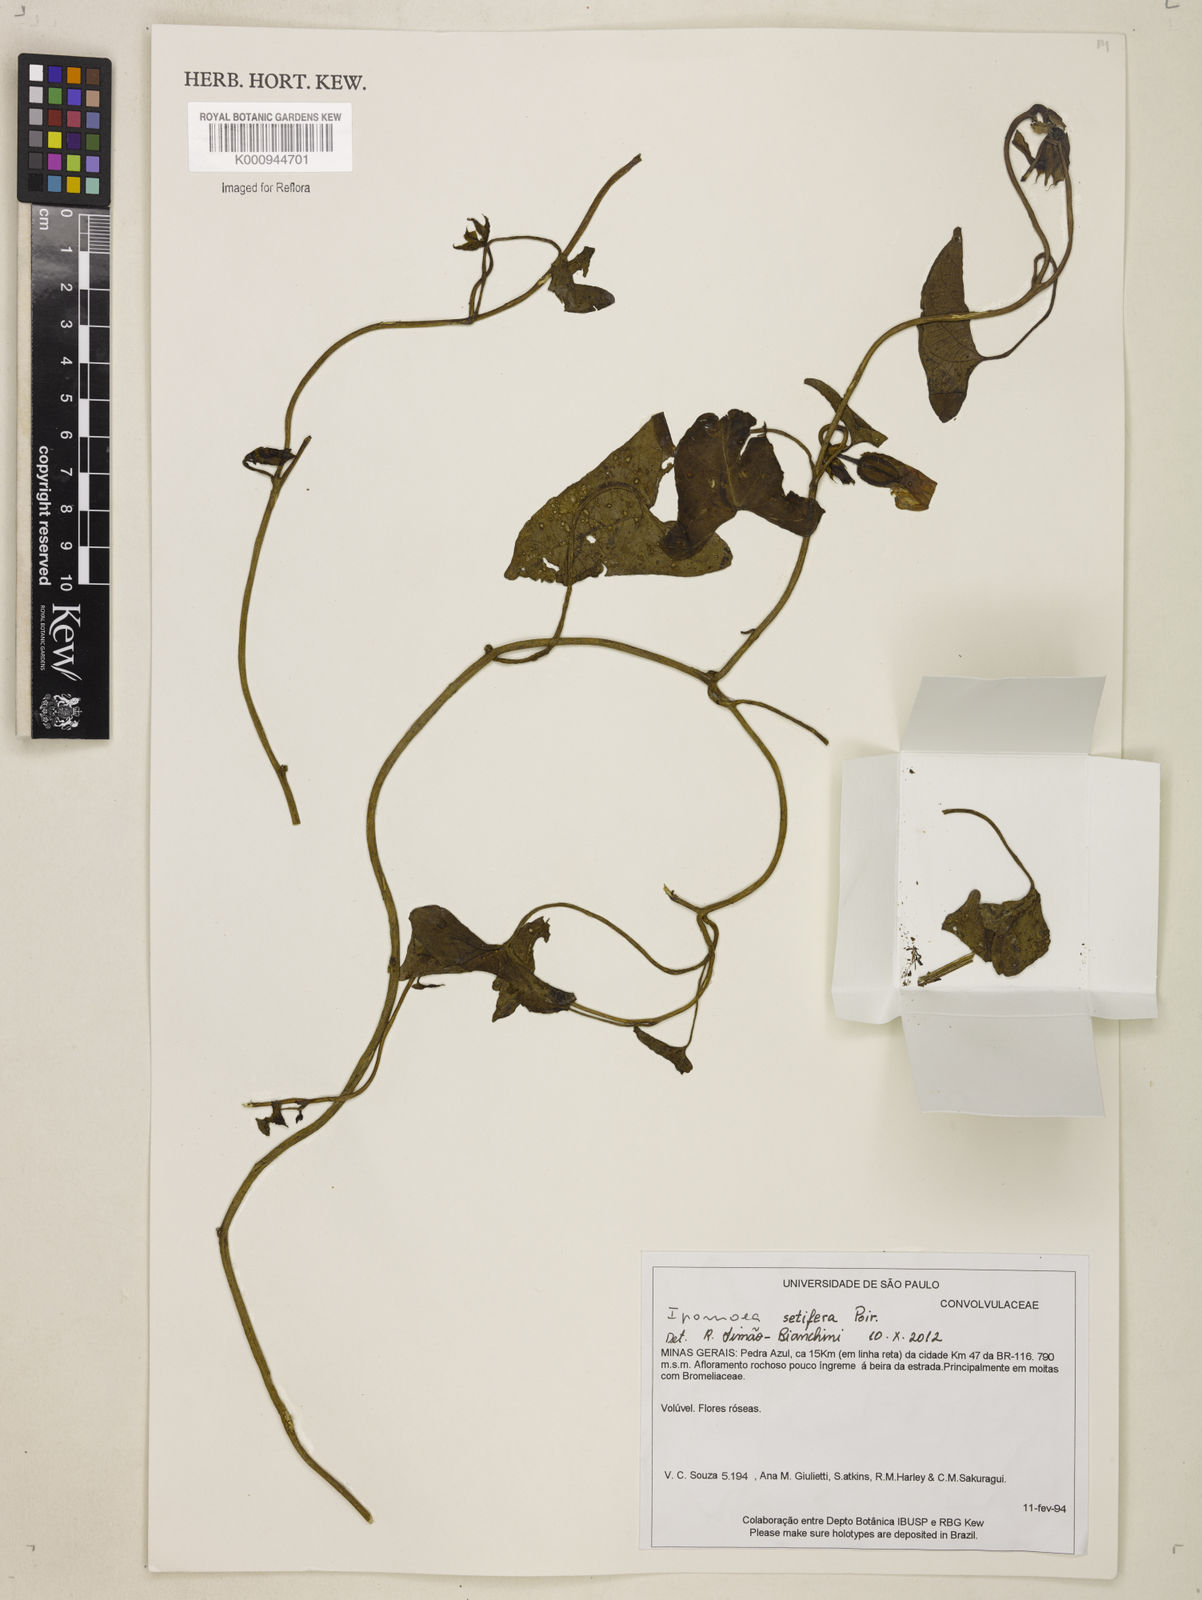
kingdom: Plantae
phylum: Tracheophyta
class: Magnoliopsida
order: Solanales
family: Convolvulaceae
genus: Ipomoea
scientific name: Ipomoea setifera
